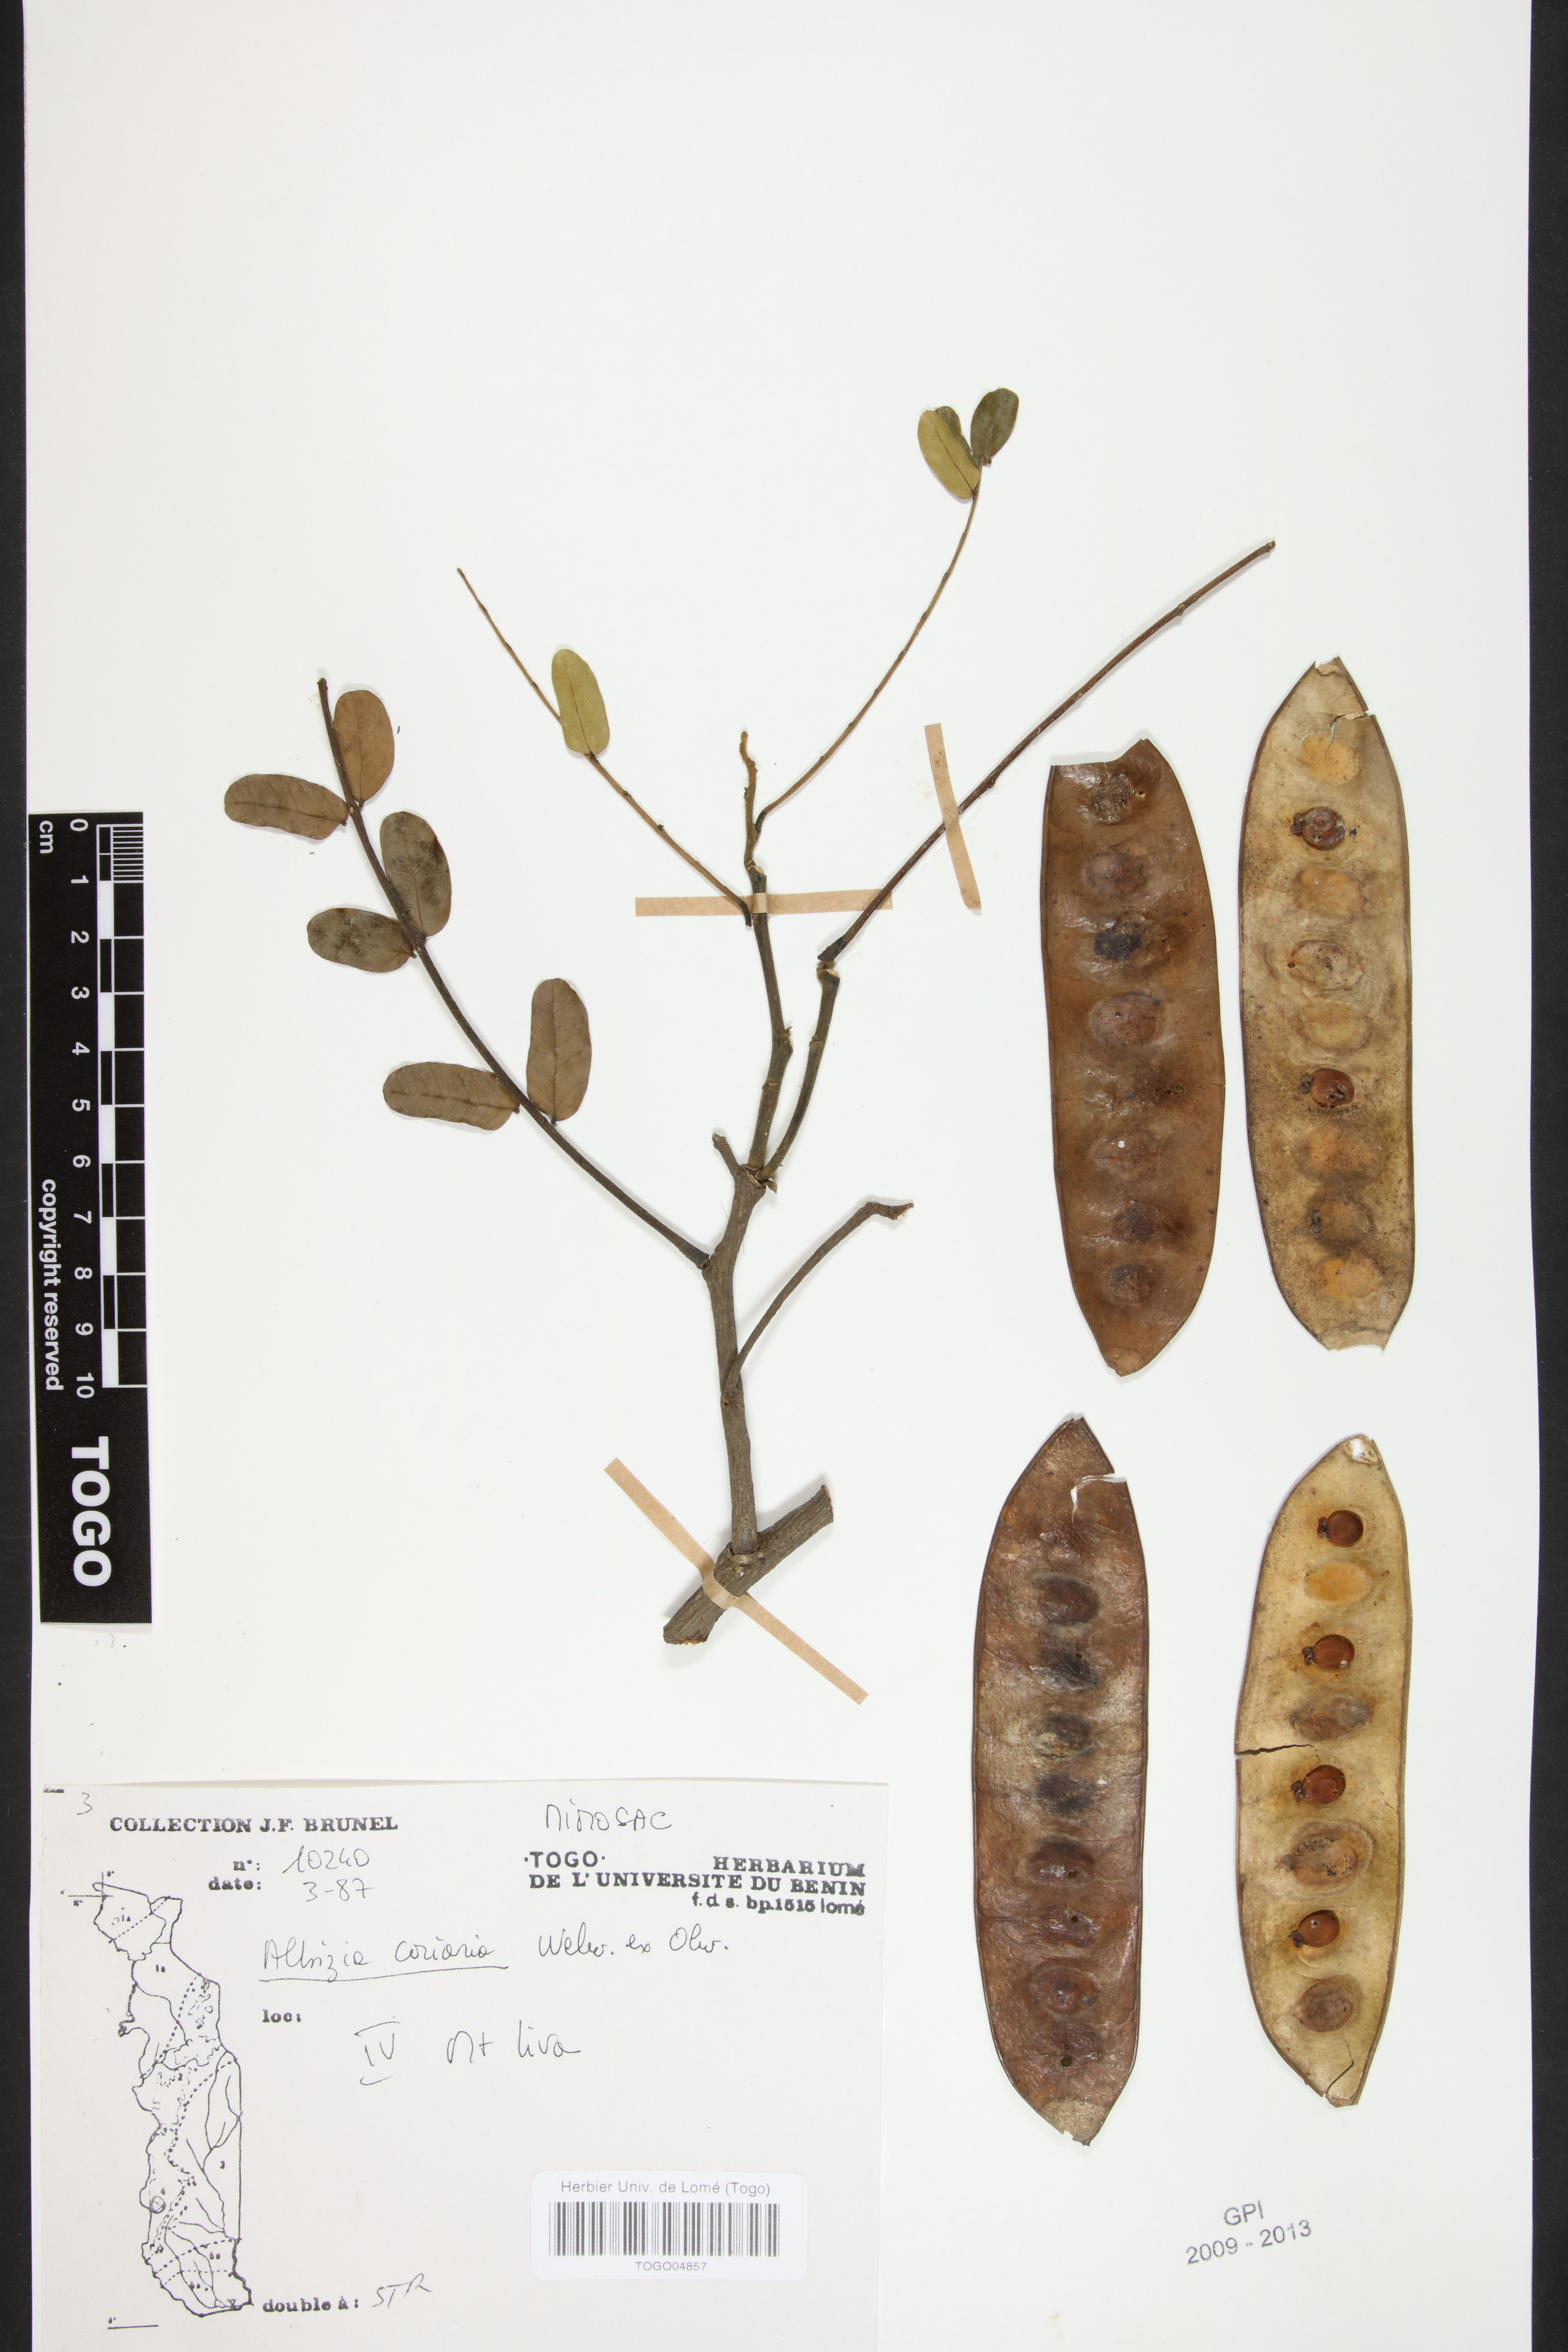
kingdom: Plantae
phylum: Tracheophyta
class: Magnoliopsida
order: Fabales
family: Fabaceae
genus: Albizia
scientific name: Albizia coriaria
